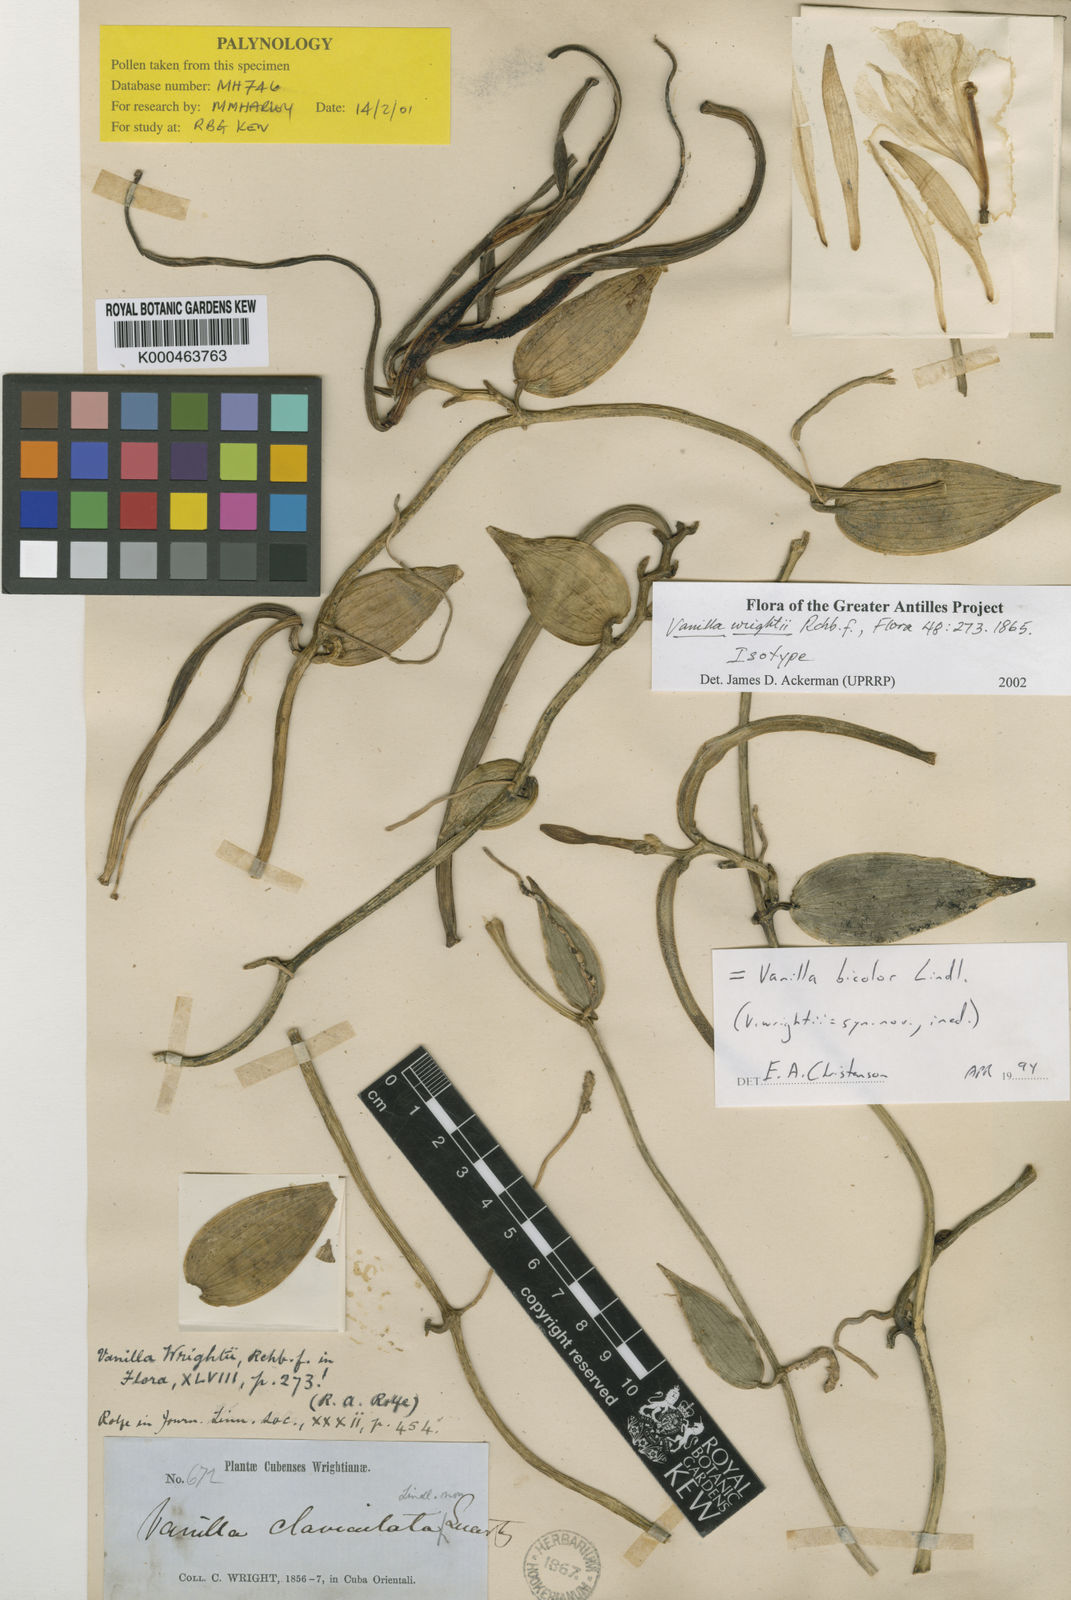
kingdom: Plantae
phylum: Tracheophyta
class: Liliopsida
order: Asparagales
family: Orchidaceae
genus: Vanilla
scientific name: Vanilla bicolor
